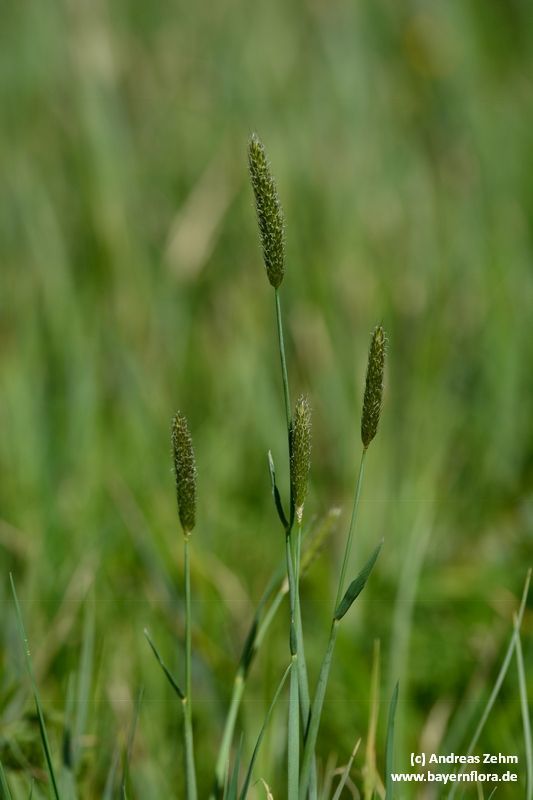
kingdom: Plantae
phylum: Tracheophyta
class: Liliopsida
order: Poales
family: Poaceae
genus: Alopecurus
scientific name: Alopecurus pratensis
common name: Meadow foxtail
